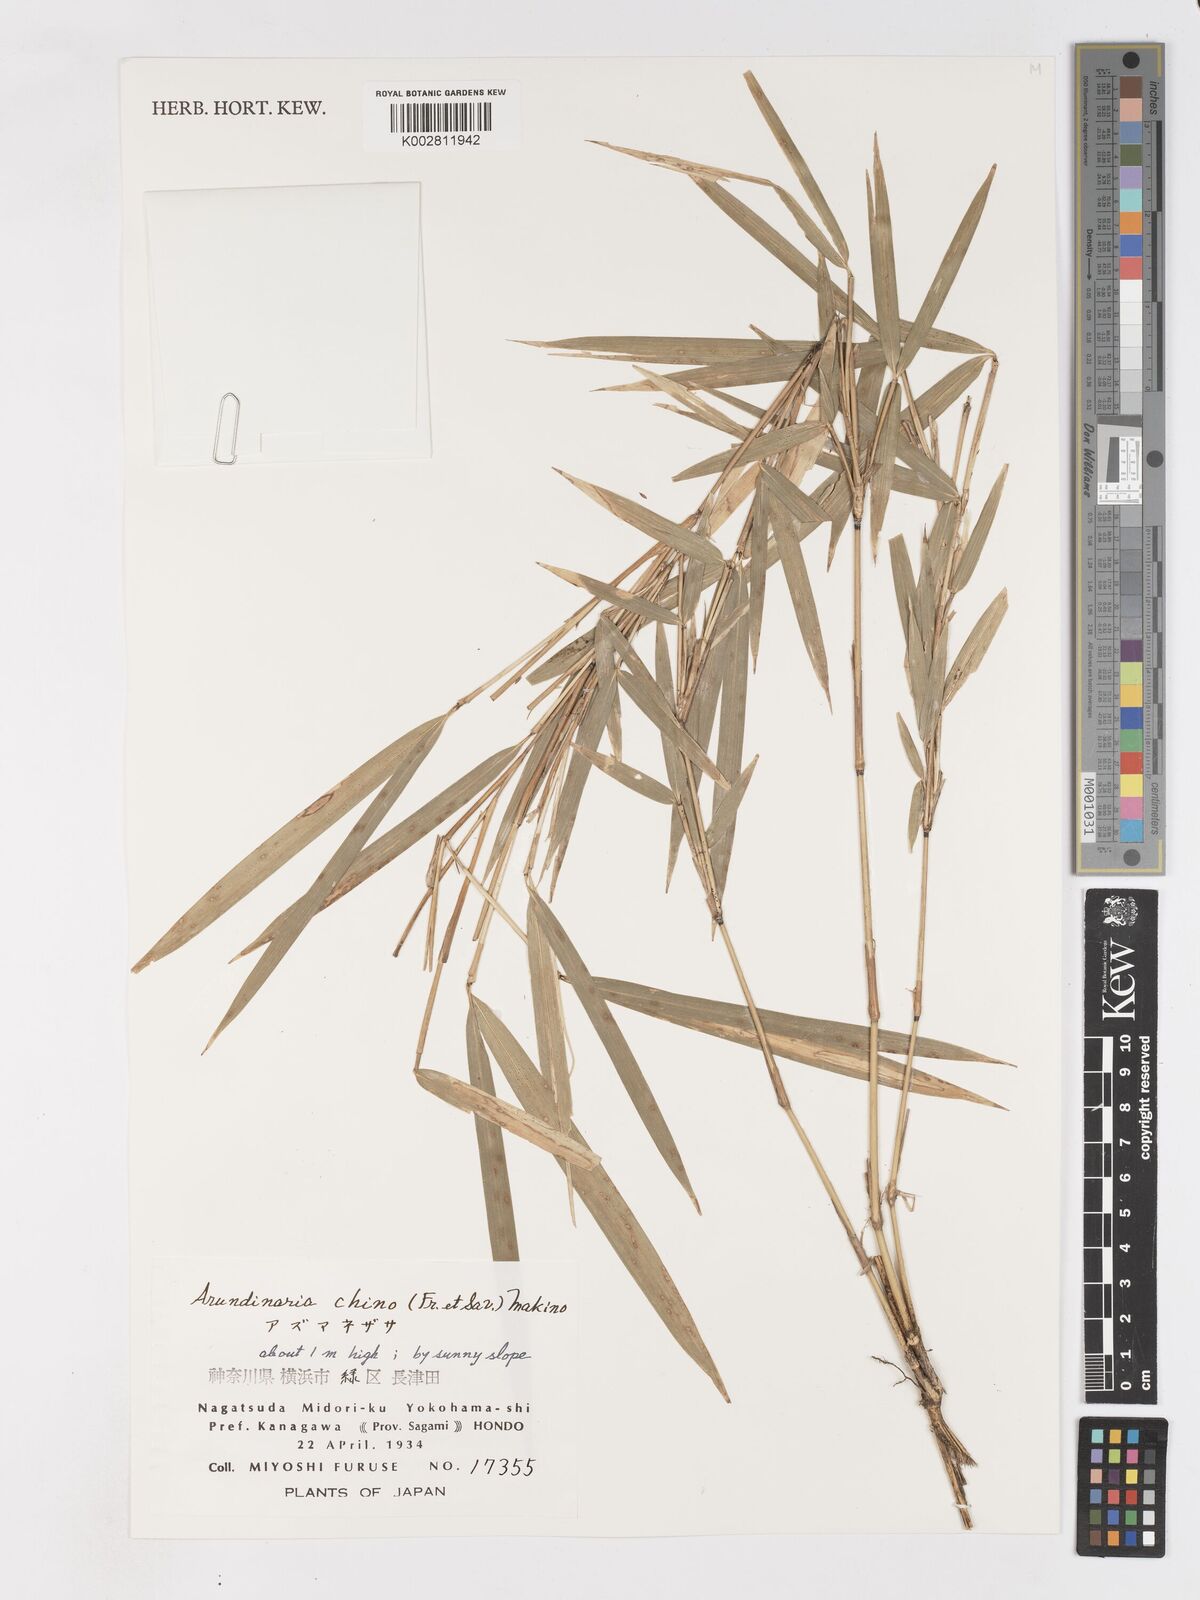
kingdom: Plantae
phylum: Tracheophyta
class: Liliopsida
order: Poales
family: Poaceae
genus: Pleioblastus
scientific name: Pleioblastus argenteostriatus
